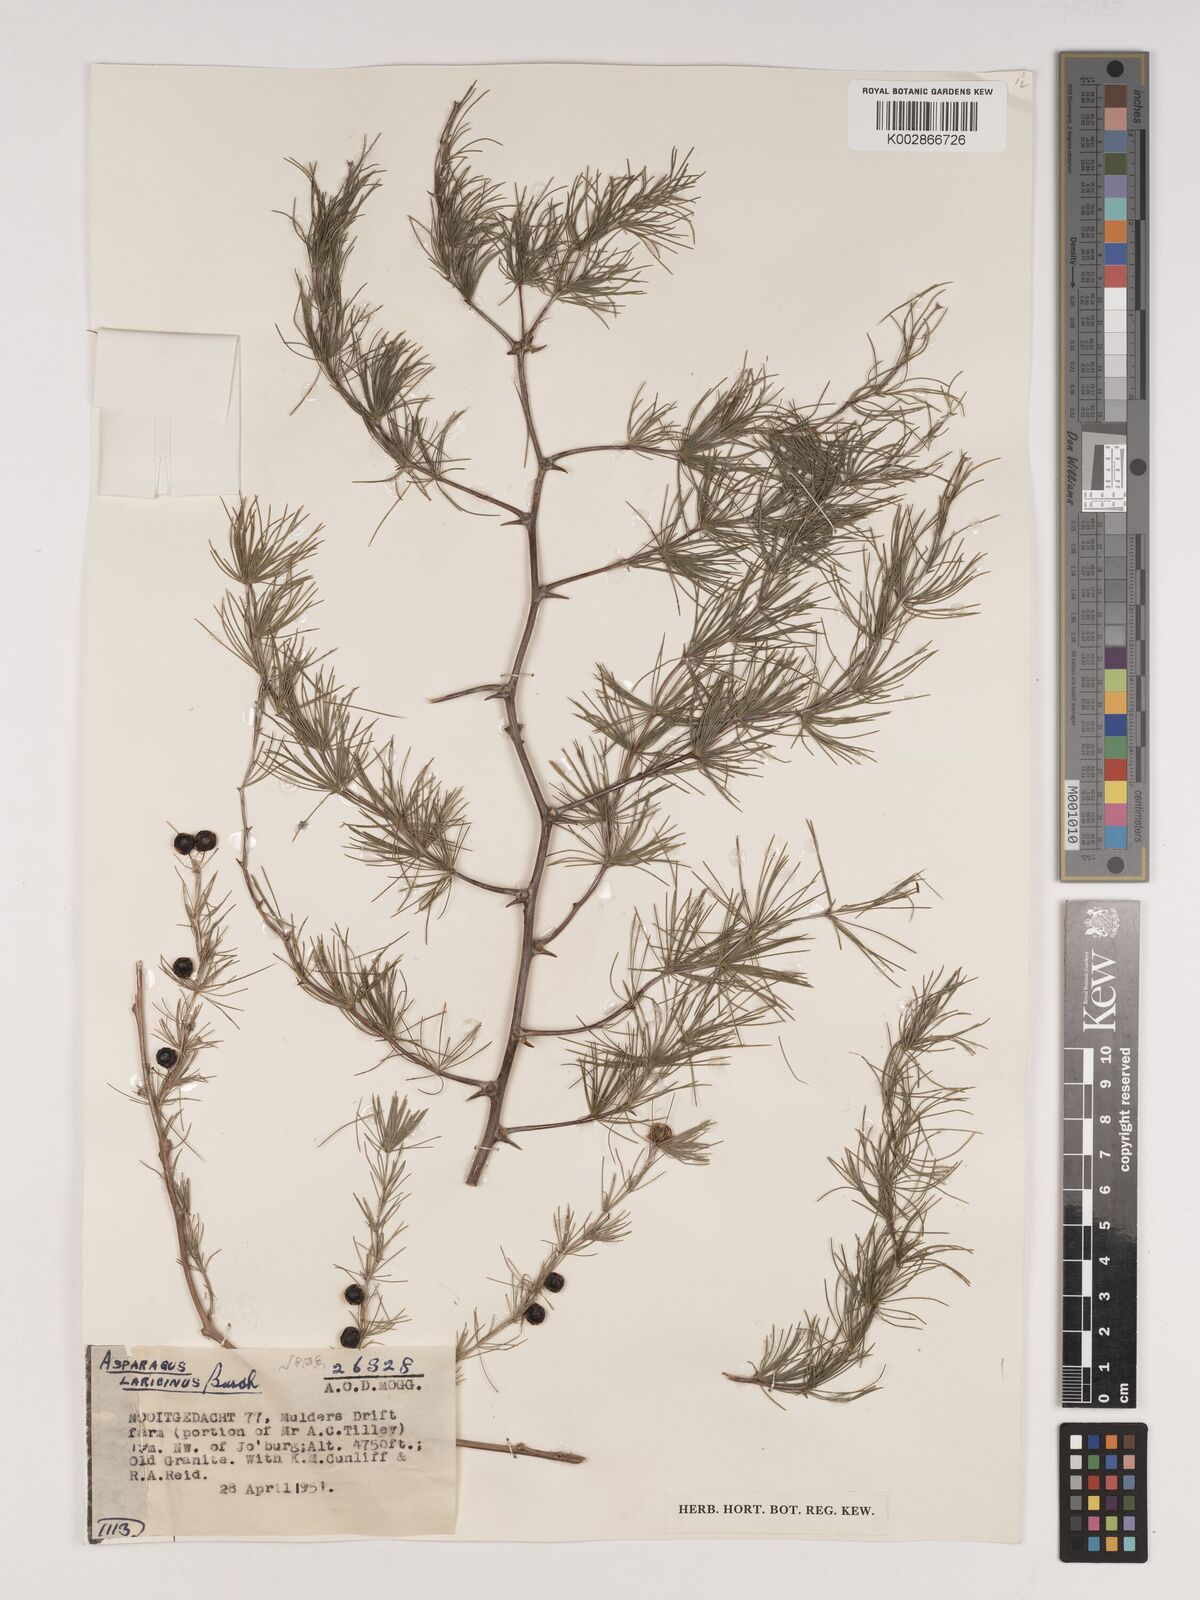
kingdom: Plantae
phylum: Tracheophyta
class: Liliopsida
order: Asparagales
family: Asparagaceae
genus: Asparagus
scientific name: Asparagus laricinus
